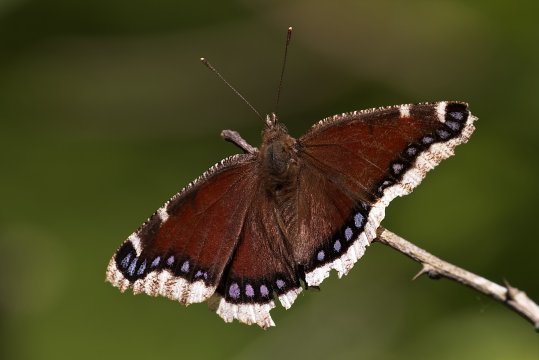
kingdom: Animalia
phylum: Arthropoda
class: Insecta
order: Lepidoptera
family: Nymphalidae
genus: Nymphalis
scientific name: Nymphalis antiopa
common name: Mourning Cloak
